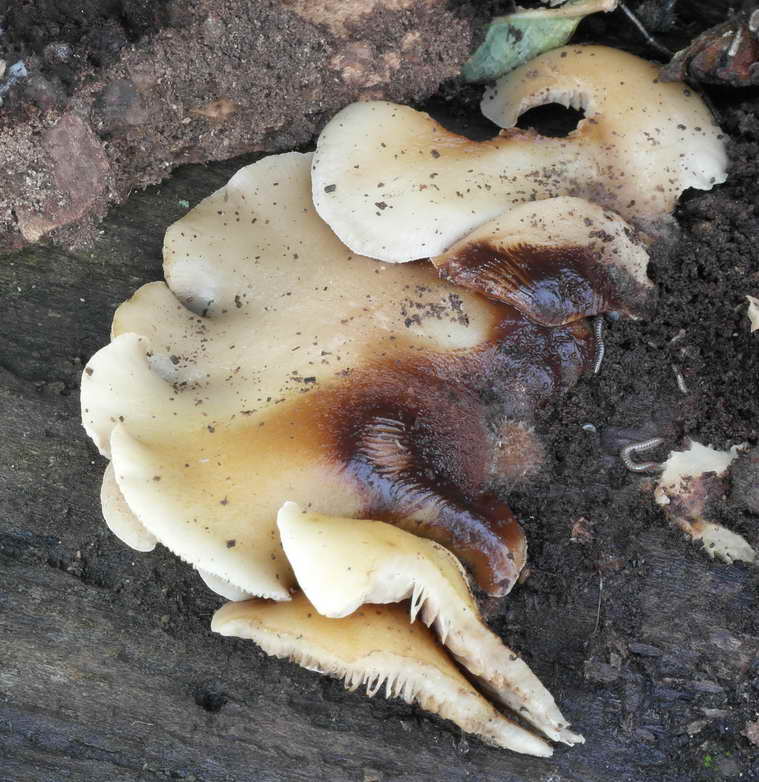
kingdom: Fungi
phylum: Basidiomycota
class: Agaricomycetes
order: Agaricales
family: Crepidotaceae
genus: Crepidotus
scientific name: Crepidotus mollis
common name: blød muslingesvamp
